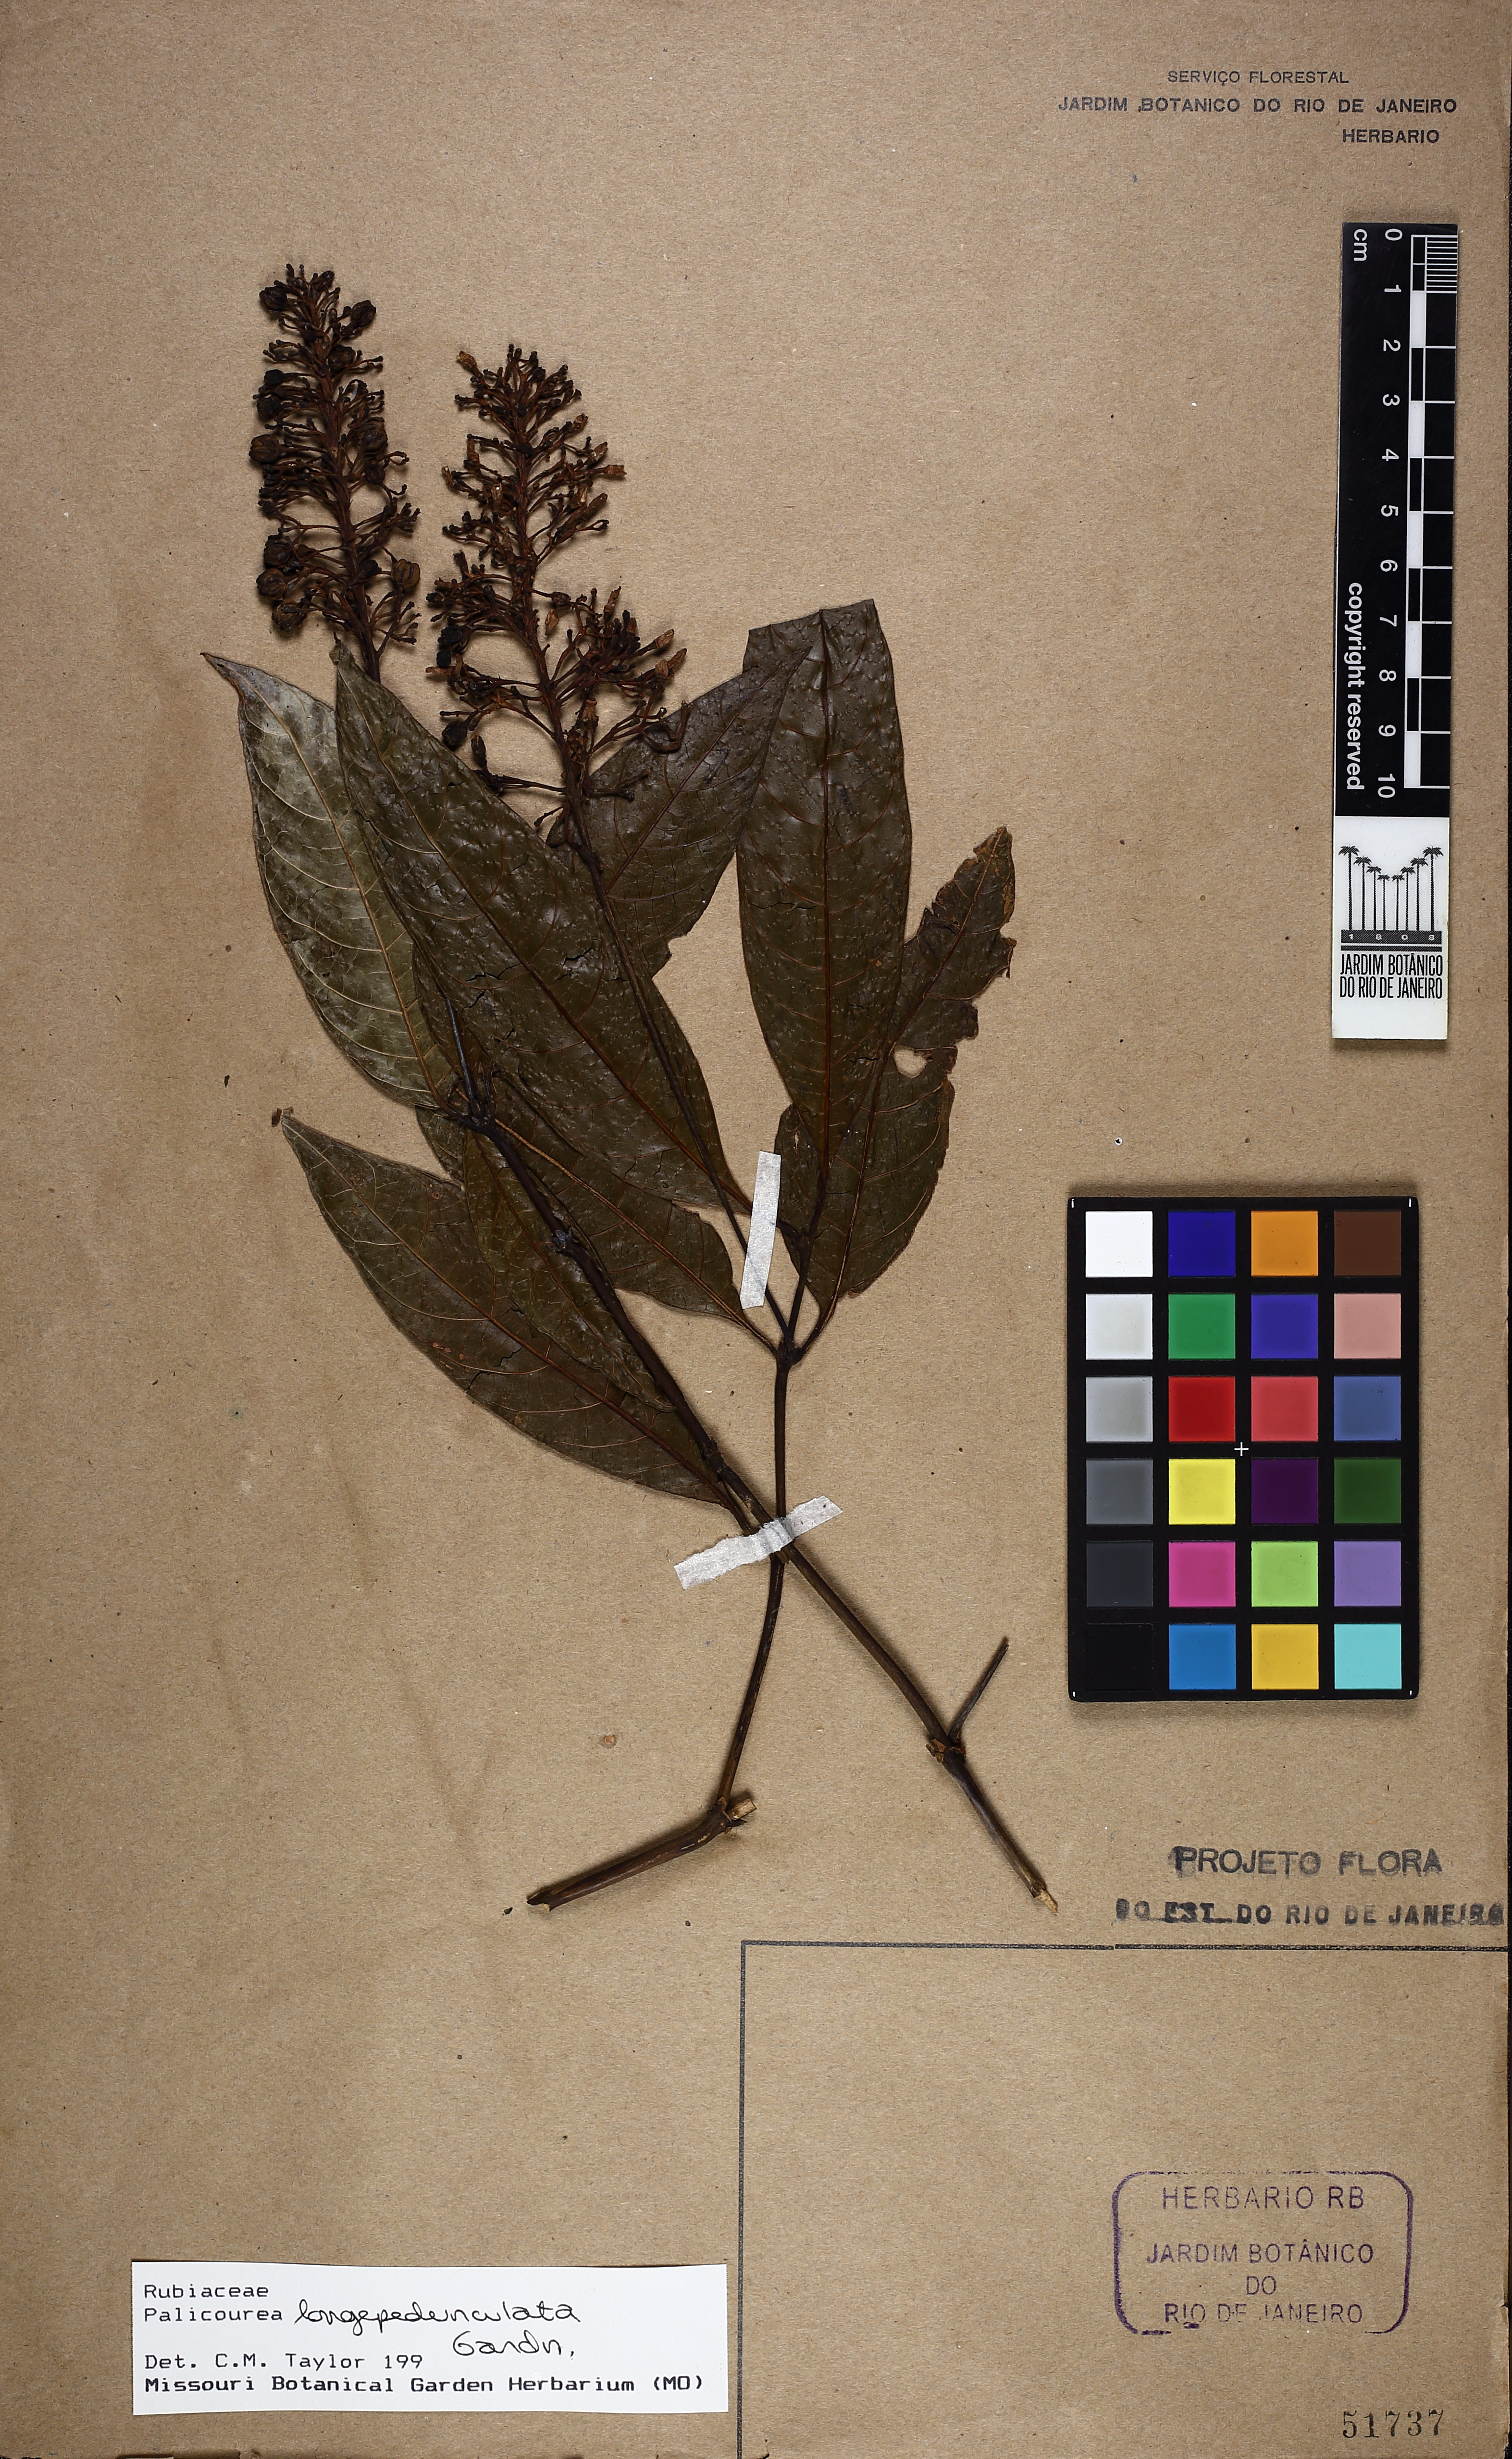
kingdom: Plantae
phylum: Tracheophyta
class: Magnoliopsida
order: Gentianales
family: Rubiaceae
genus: Palicourea
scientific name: Palicourea longipedunculata
